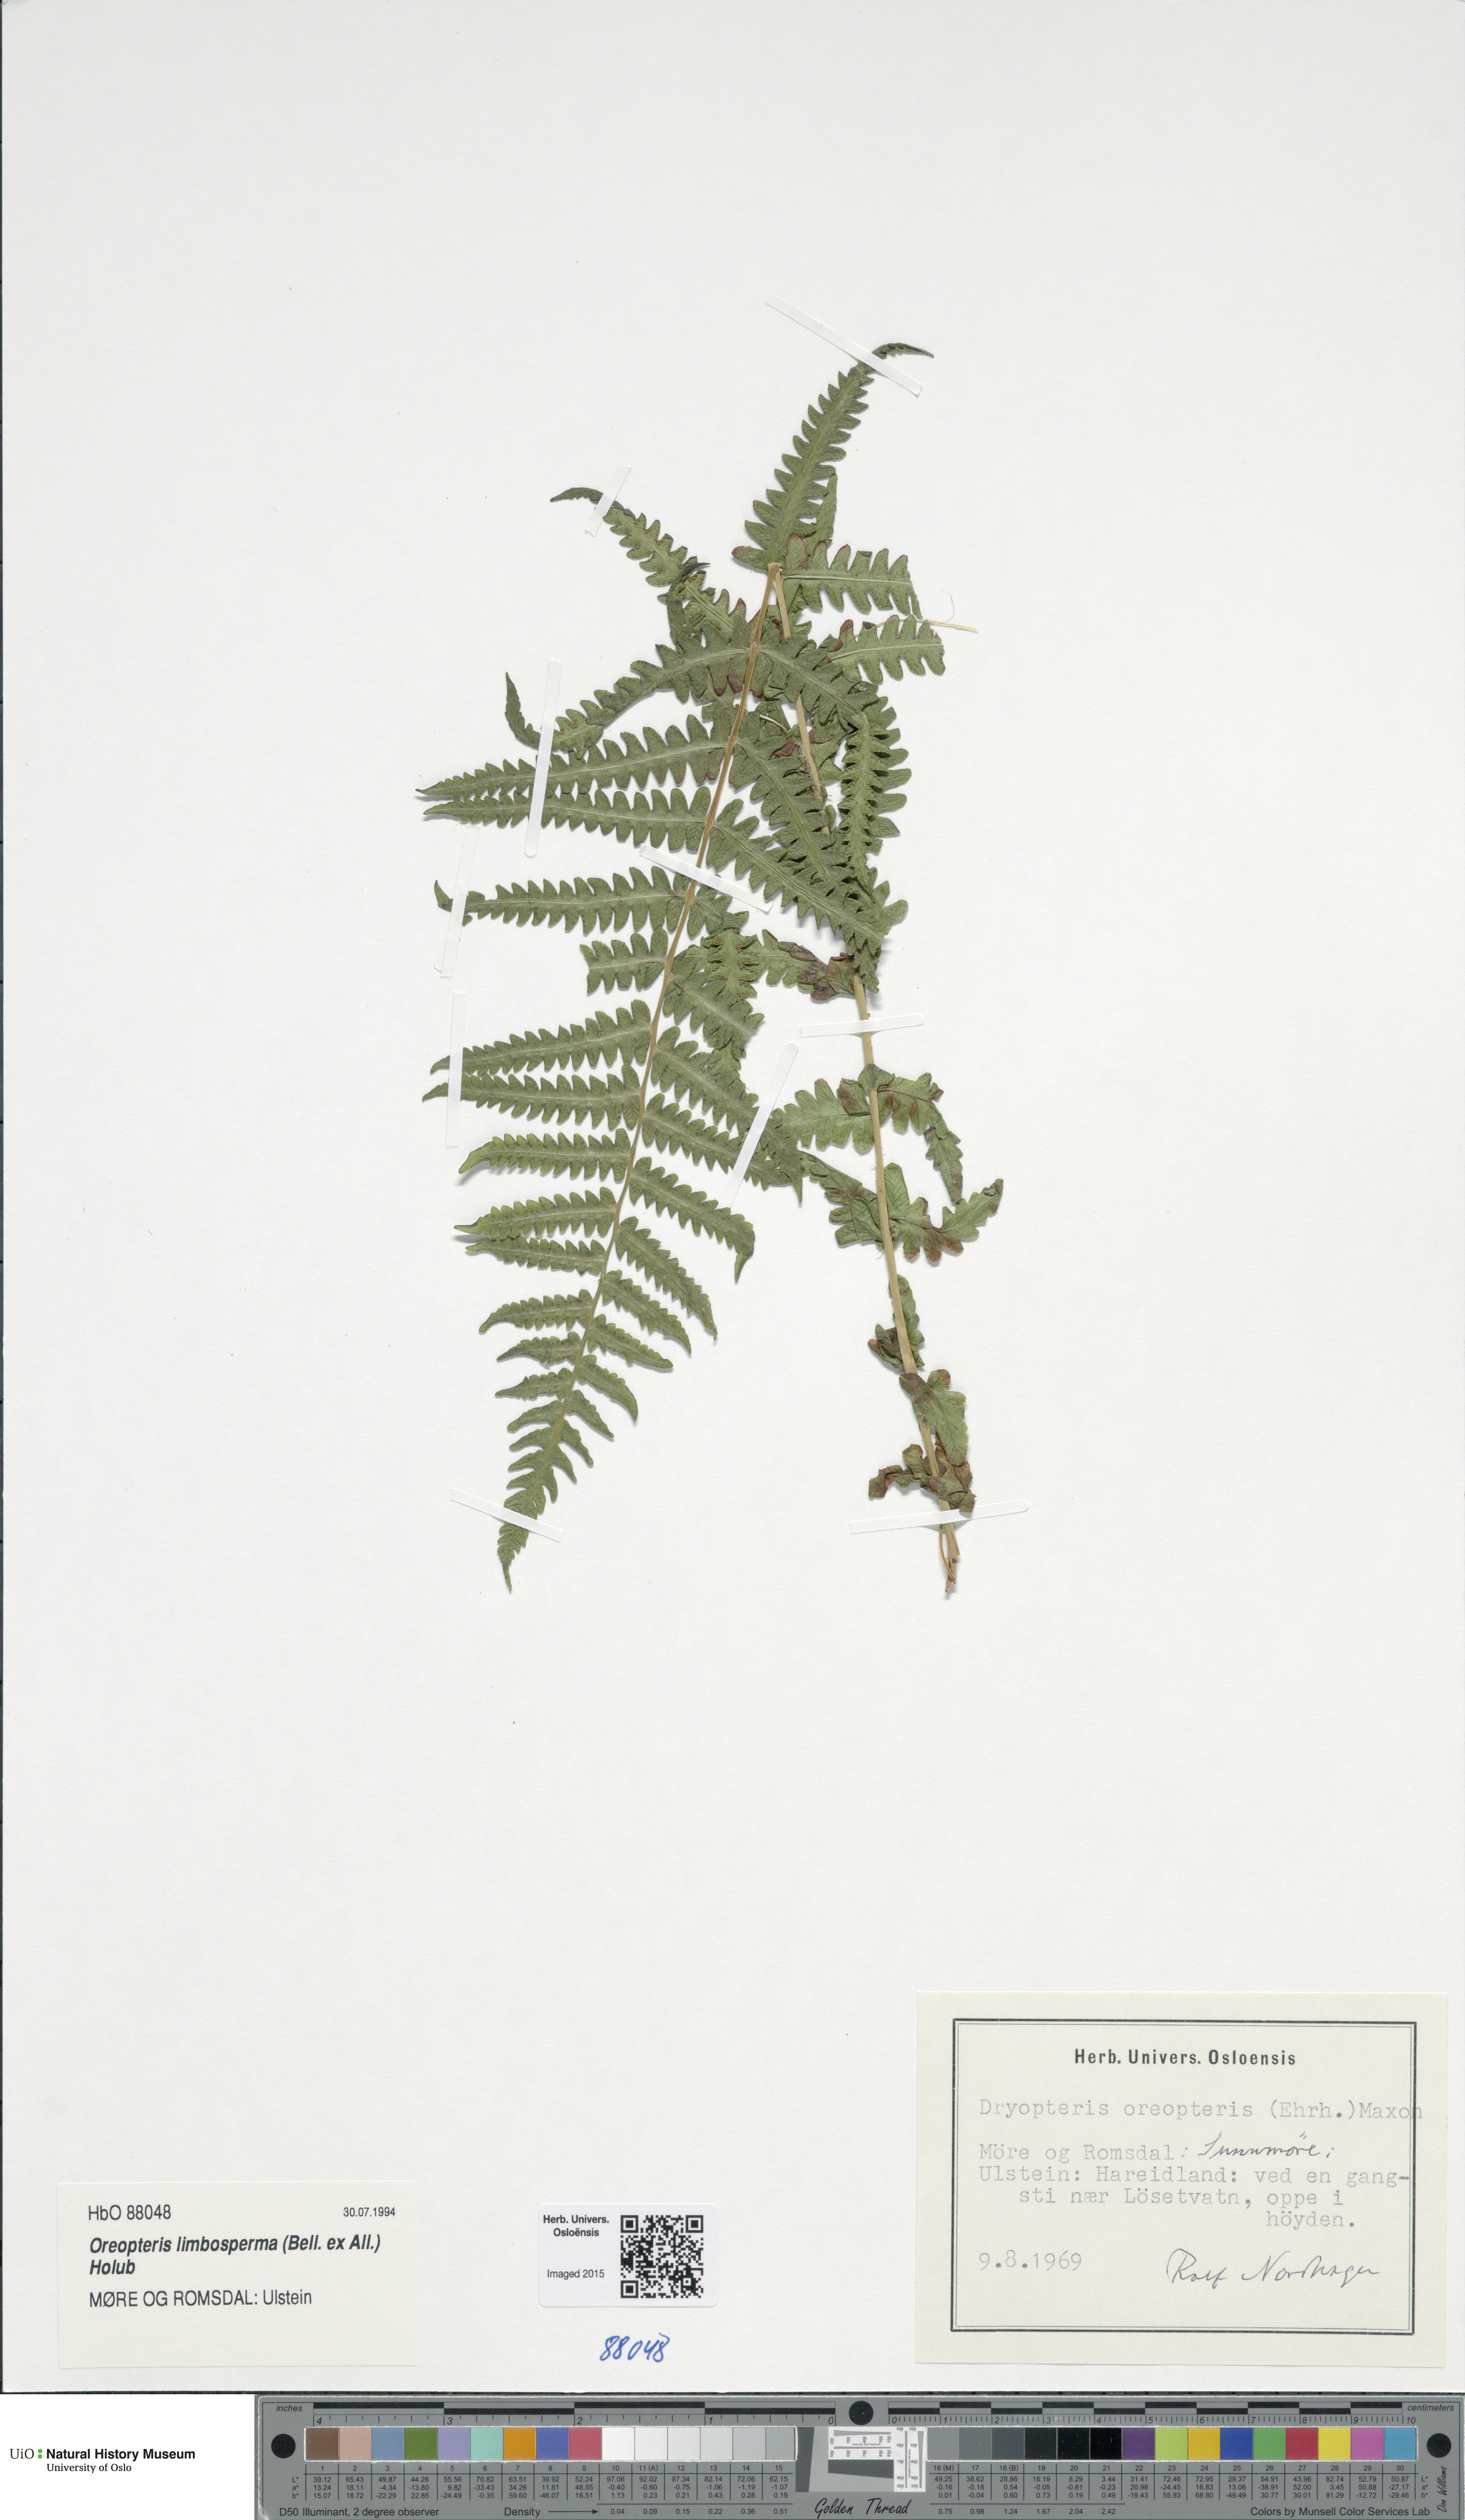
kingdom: Plantae
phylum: Tracheophyta
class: Polypodiopsida
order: Polypodiales
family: Thelypteridaceae
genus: Oreopteris
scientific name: Oreopteris limbosperma
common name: Lemon-scented fern
